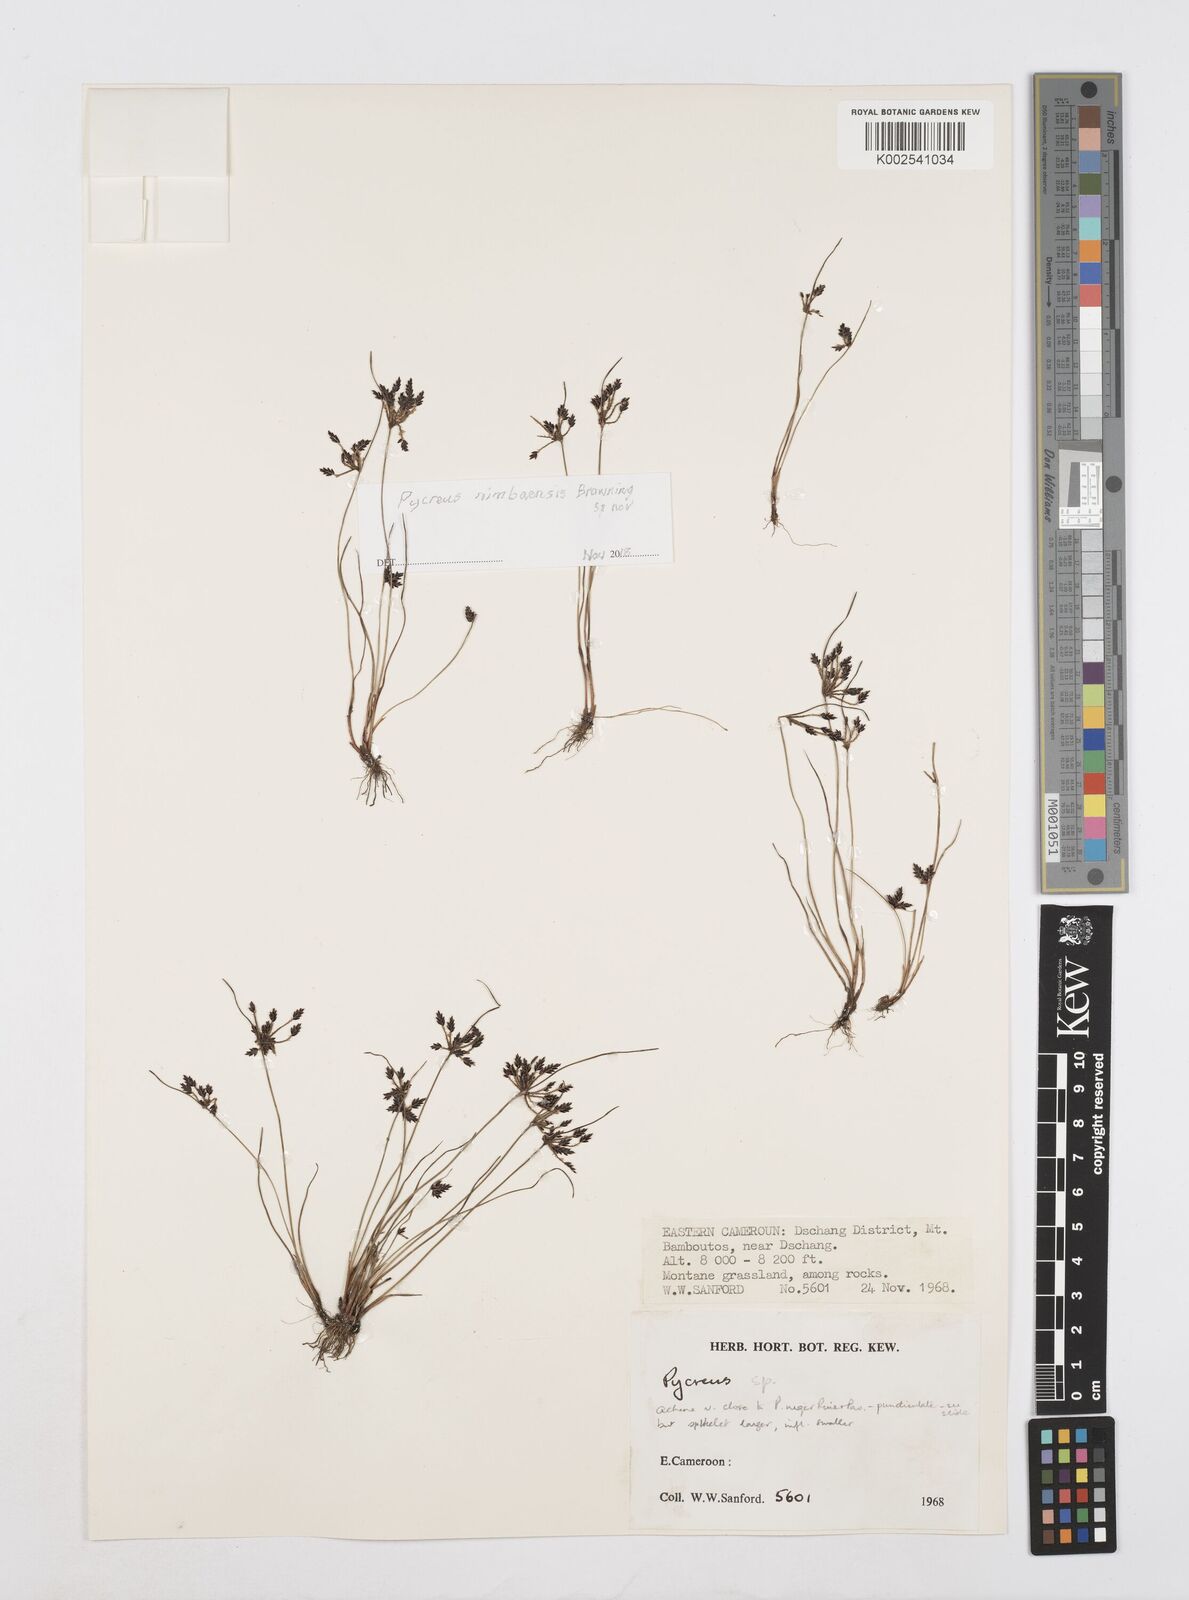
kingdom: Plantae
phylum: Tracheophyta
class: Liliopsida
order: Poales
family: Cyperaceae
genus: Cyperus
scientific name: Cyperus
